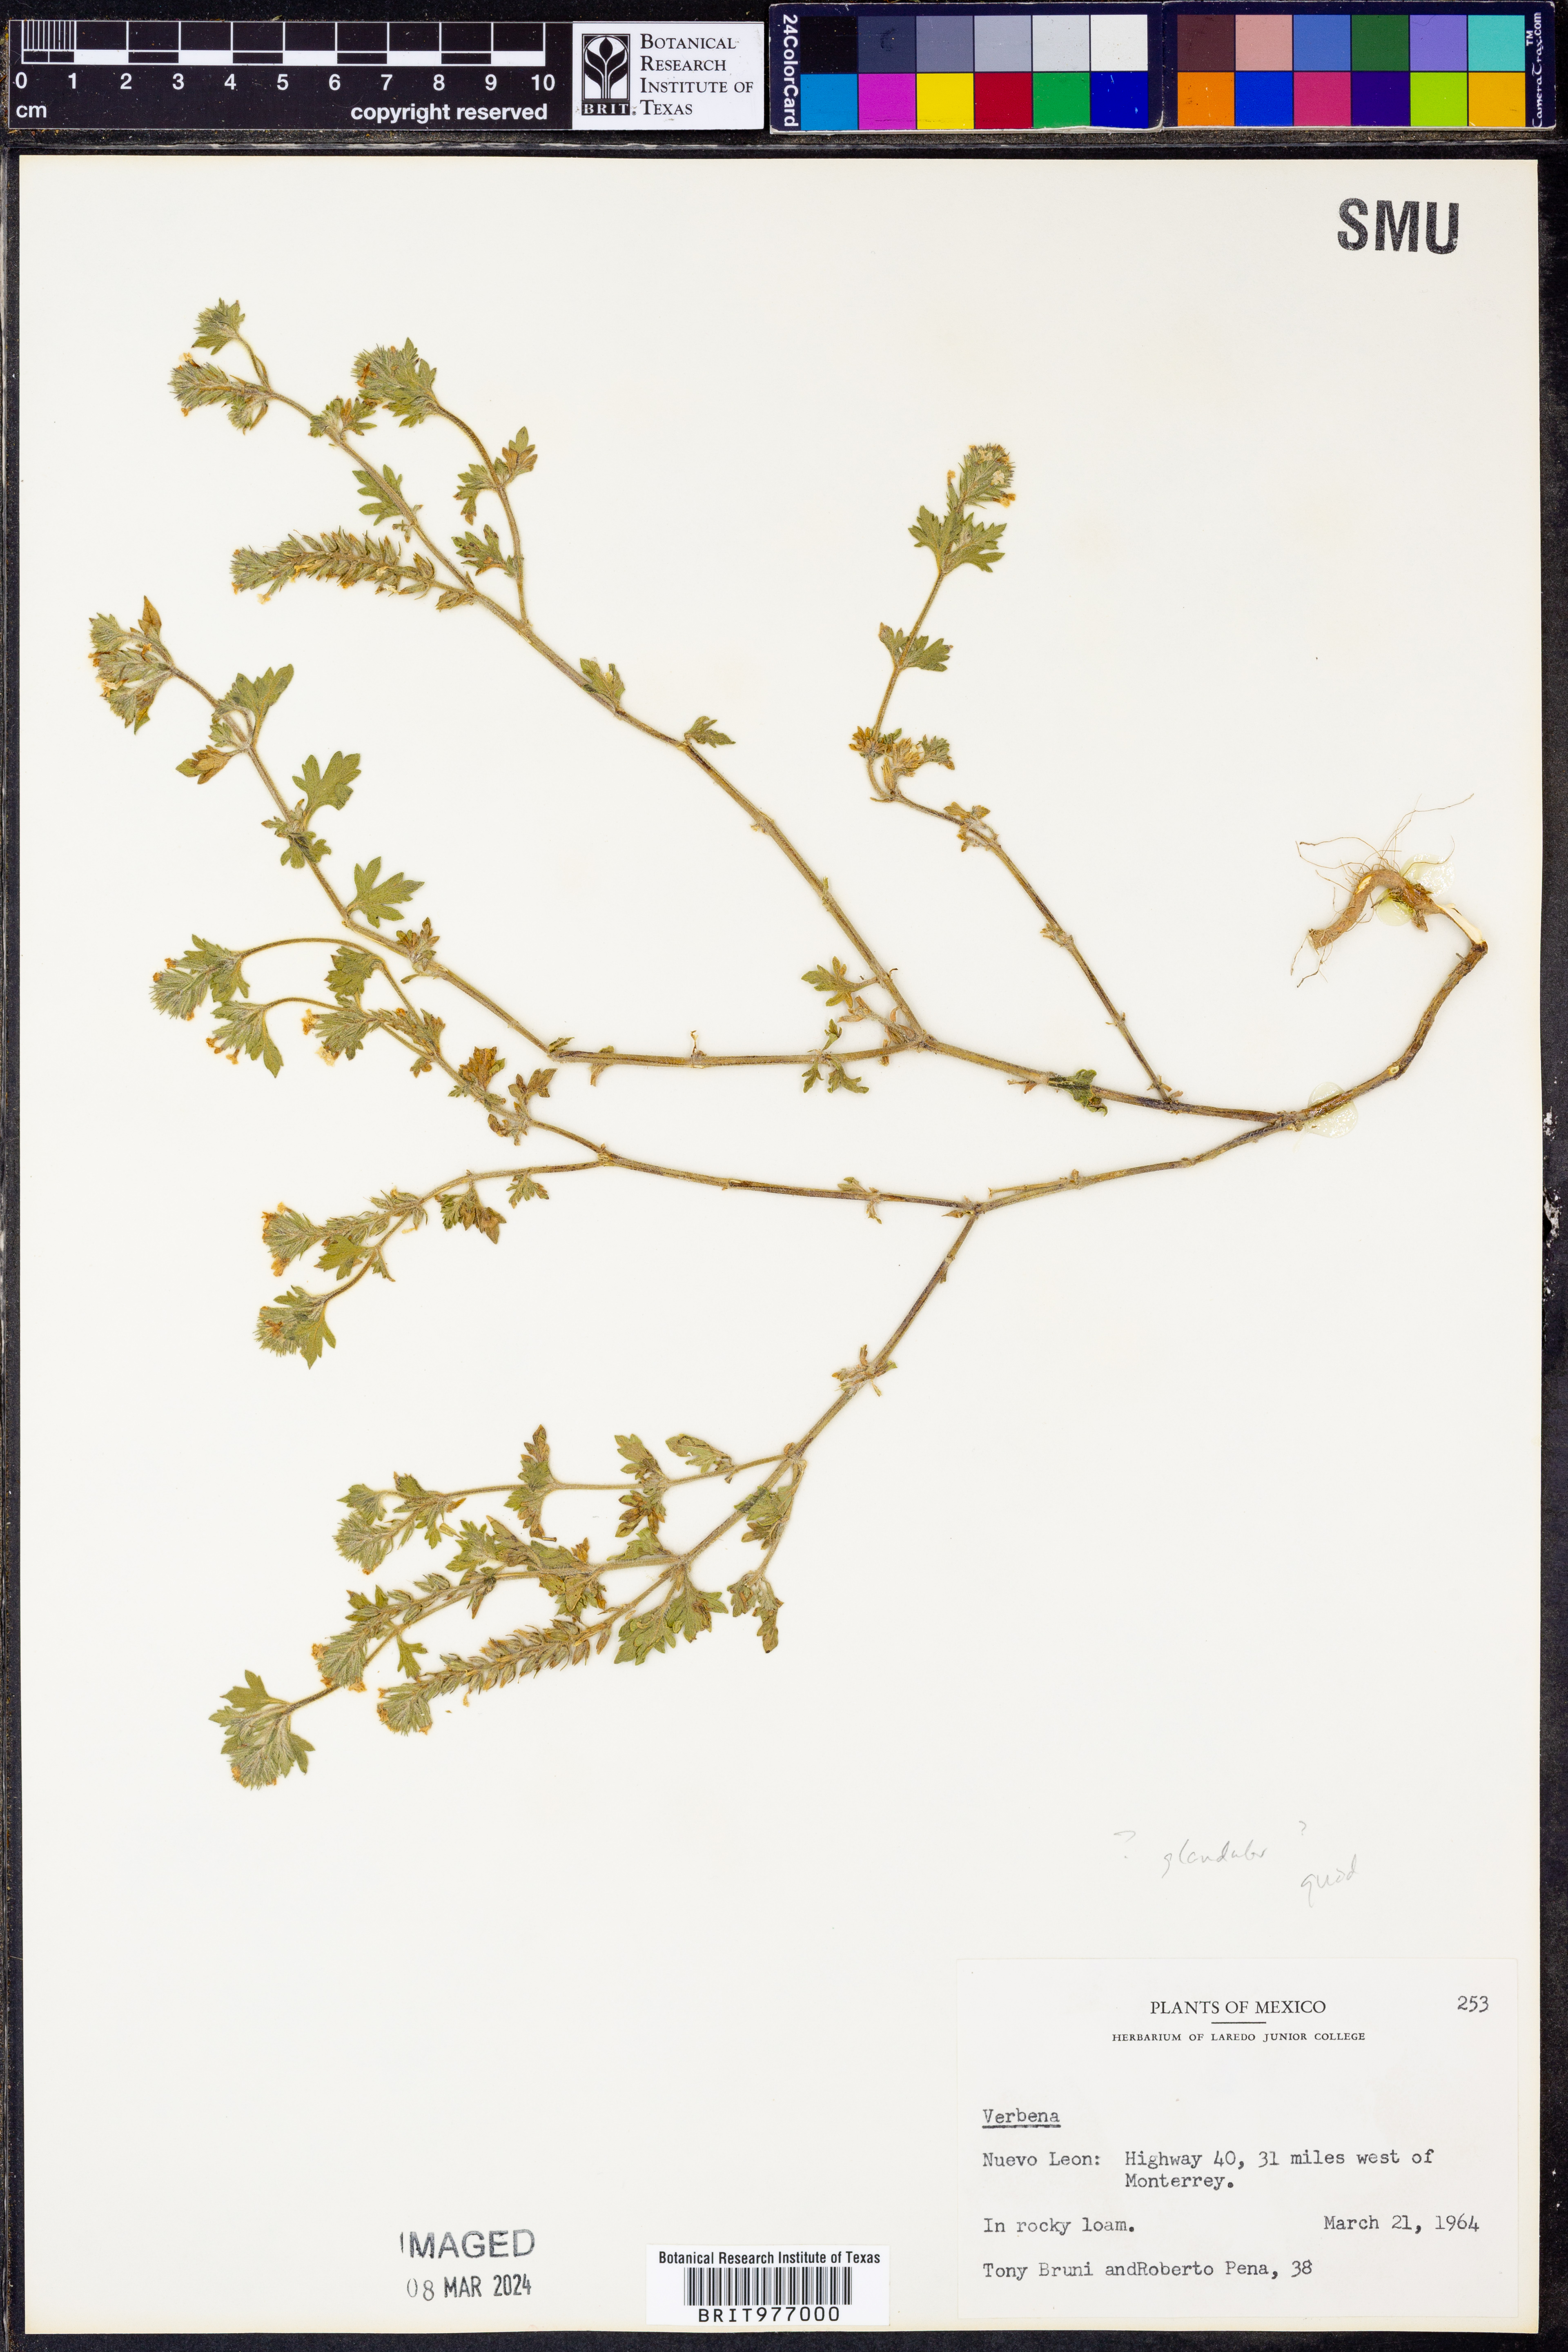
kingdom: Plantae
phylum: Tracheophyta
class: Magnoliopsida
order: Lamiales
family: Verbenaceae
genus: Verbena
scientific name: Verbena quadrangulata
